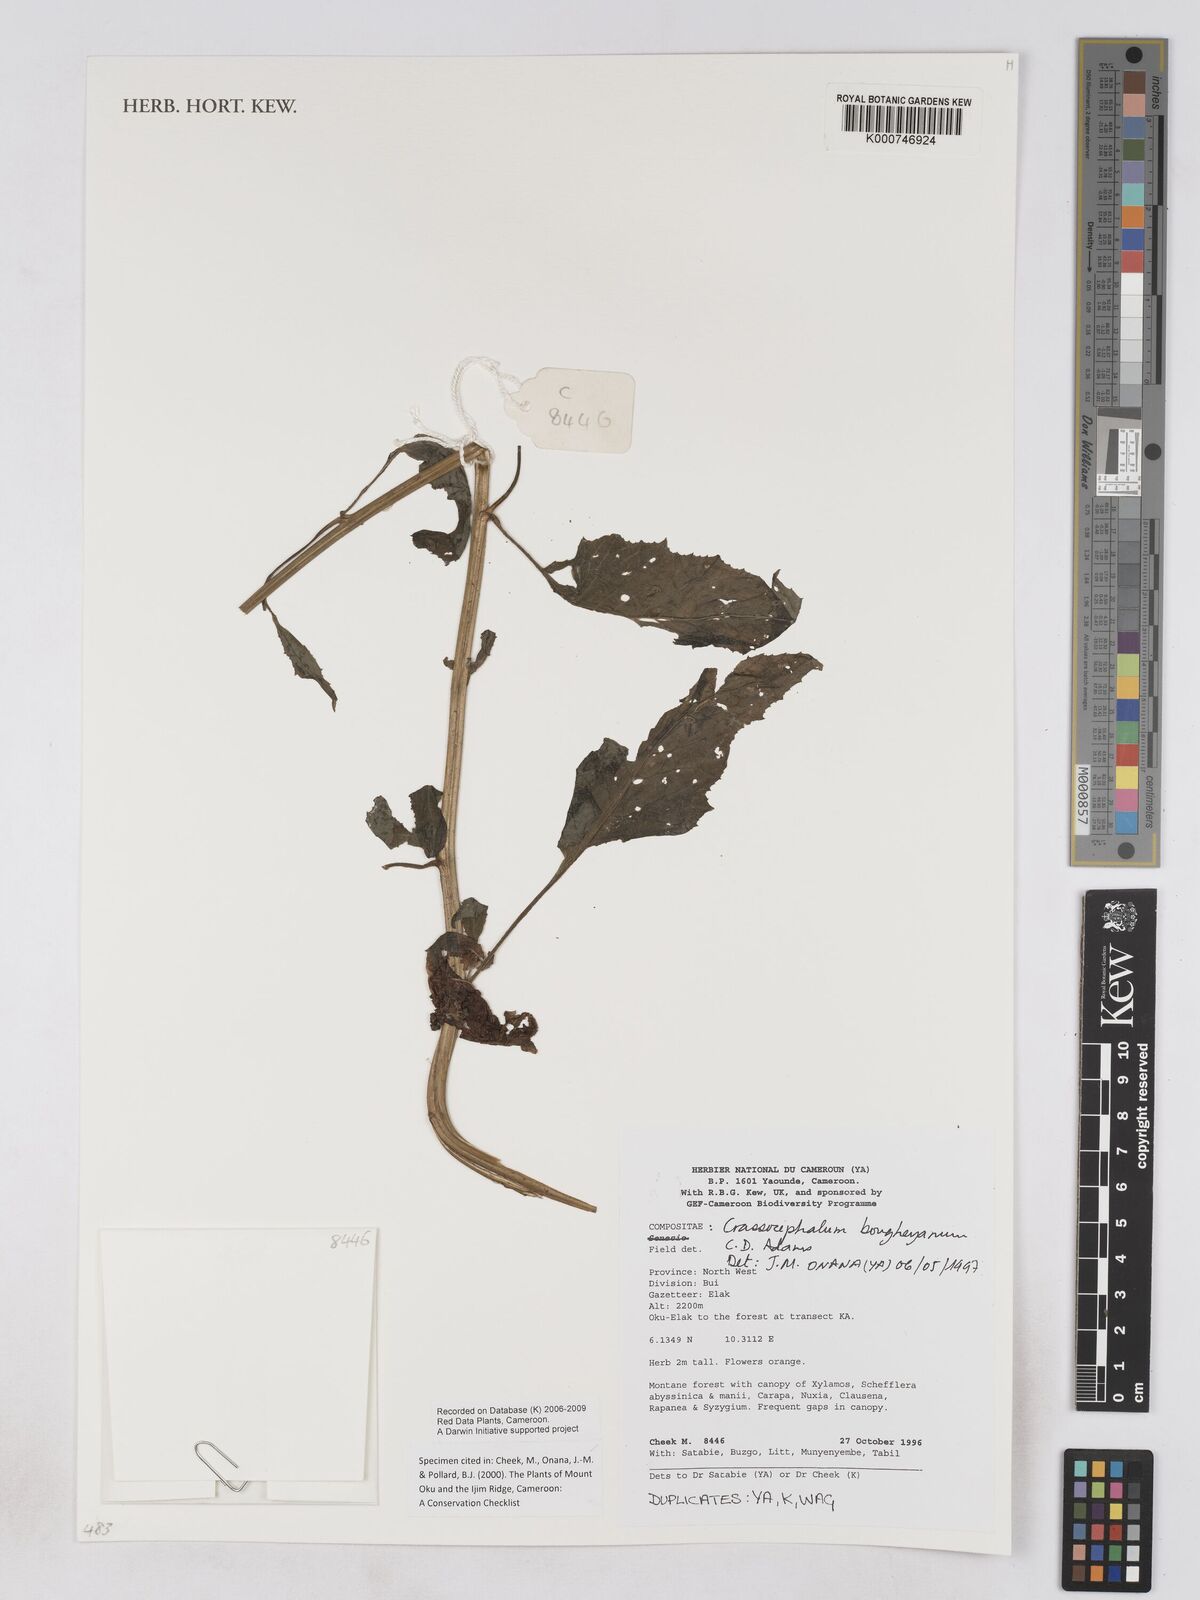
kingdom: Plantae
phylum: Tracheophyta
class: Magnoliopsida
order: Asterales
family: Asteraceae
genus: Crassocephalum
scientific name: Crassocephalum bougheyanum
